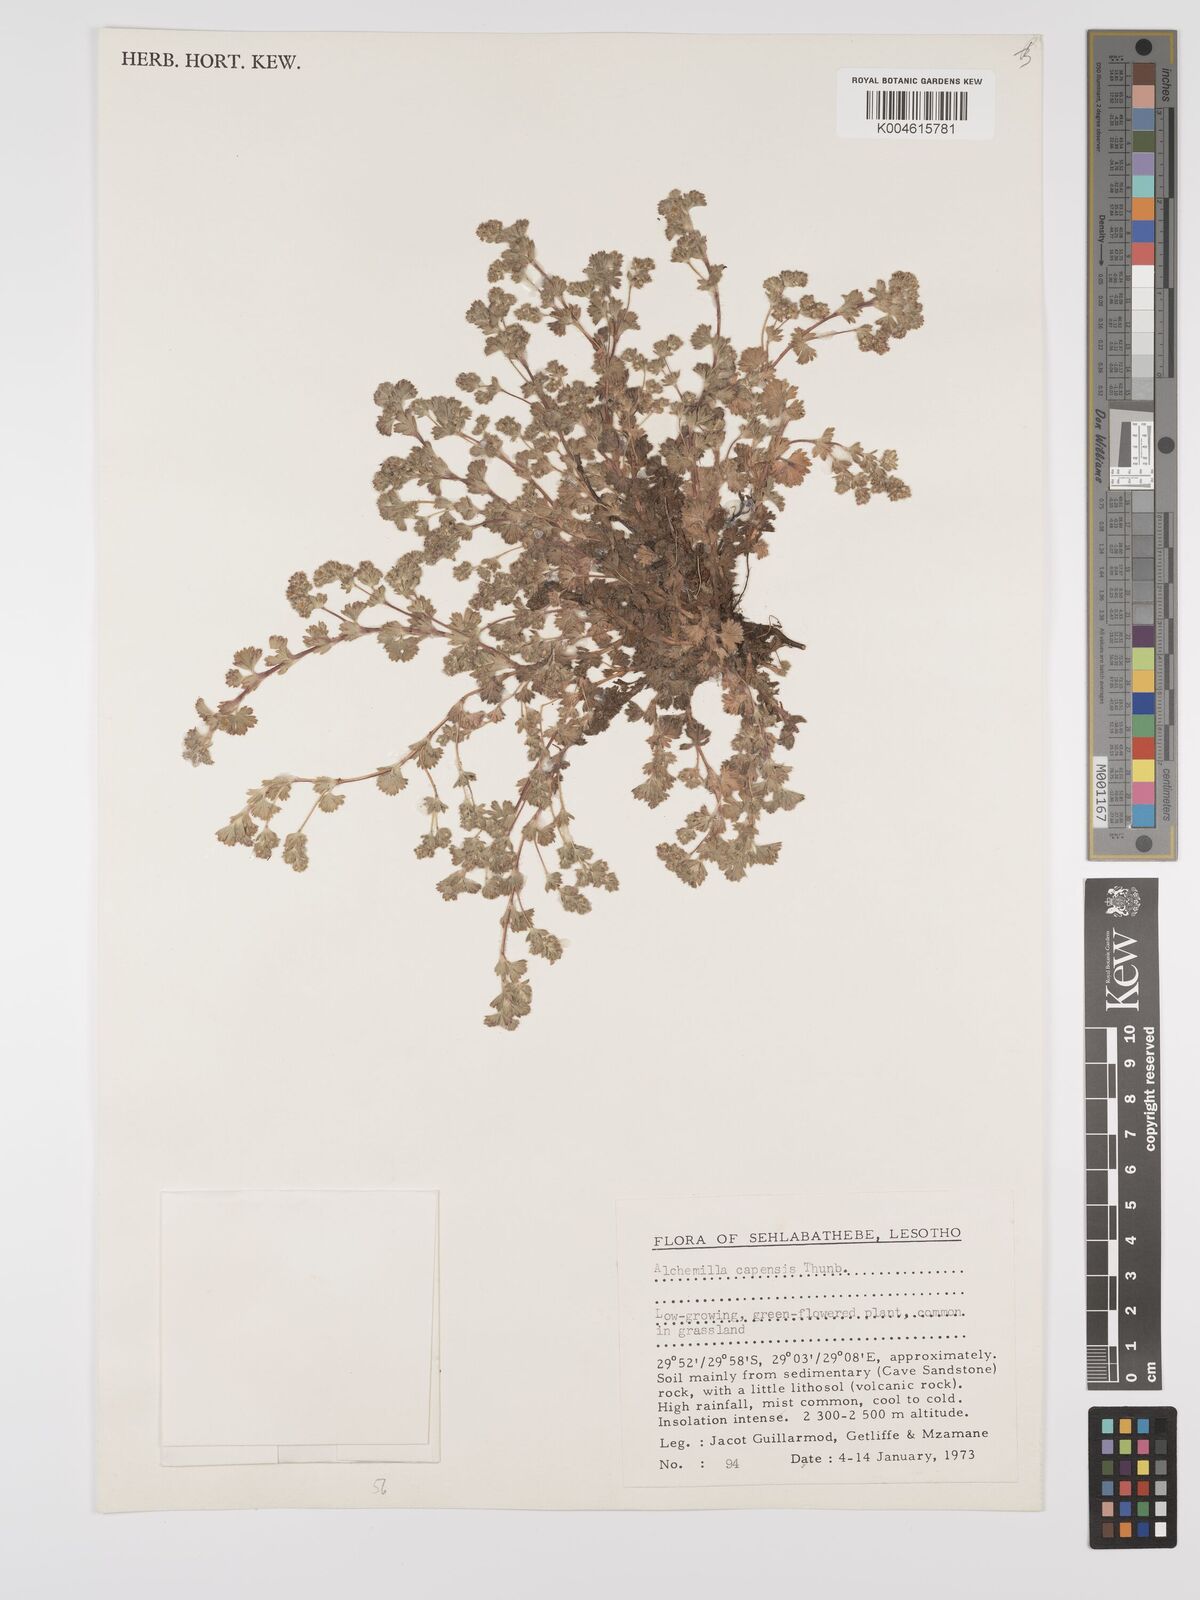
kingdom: Plantae
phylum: Tracheophyta
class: Magnoliopsida
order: Rosales
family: Rosaceae
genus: Alchemilla
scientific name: Alchemilla woodii
